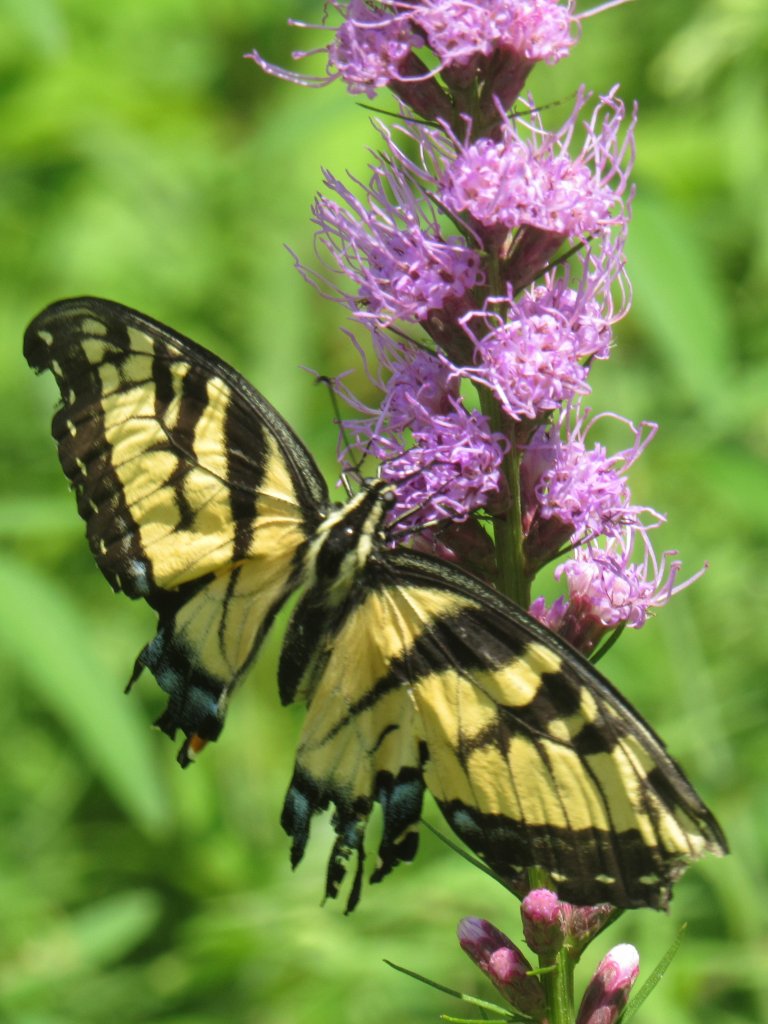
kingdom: Animalia
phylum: Arthropoda
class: Insecta
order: Lepidoptera
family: Papilionidae
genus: Pterourus
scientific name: Pterourus glaucus
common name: Eastern Tiger Swallowtail
